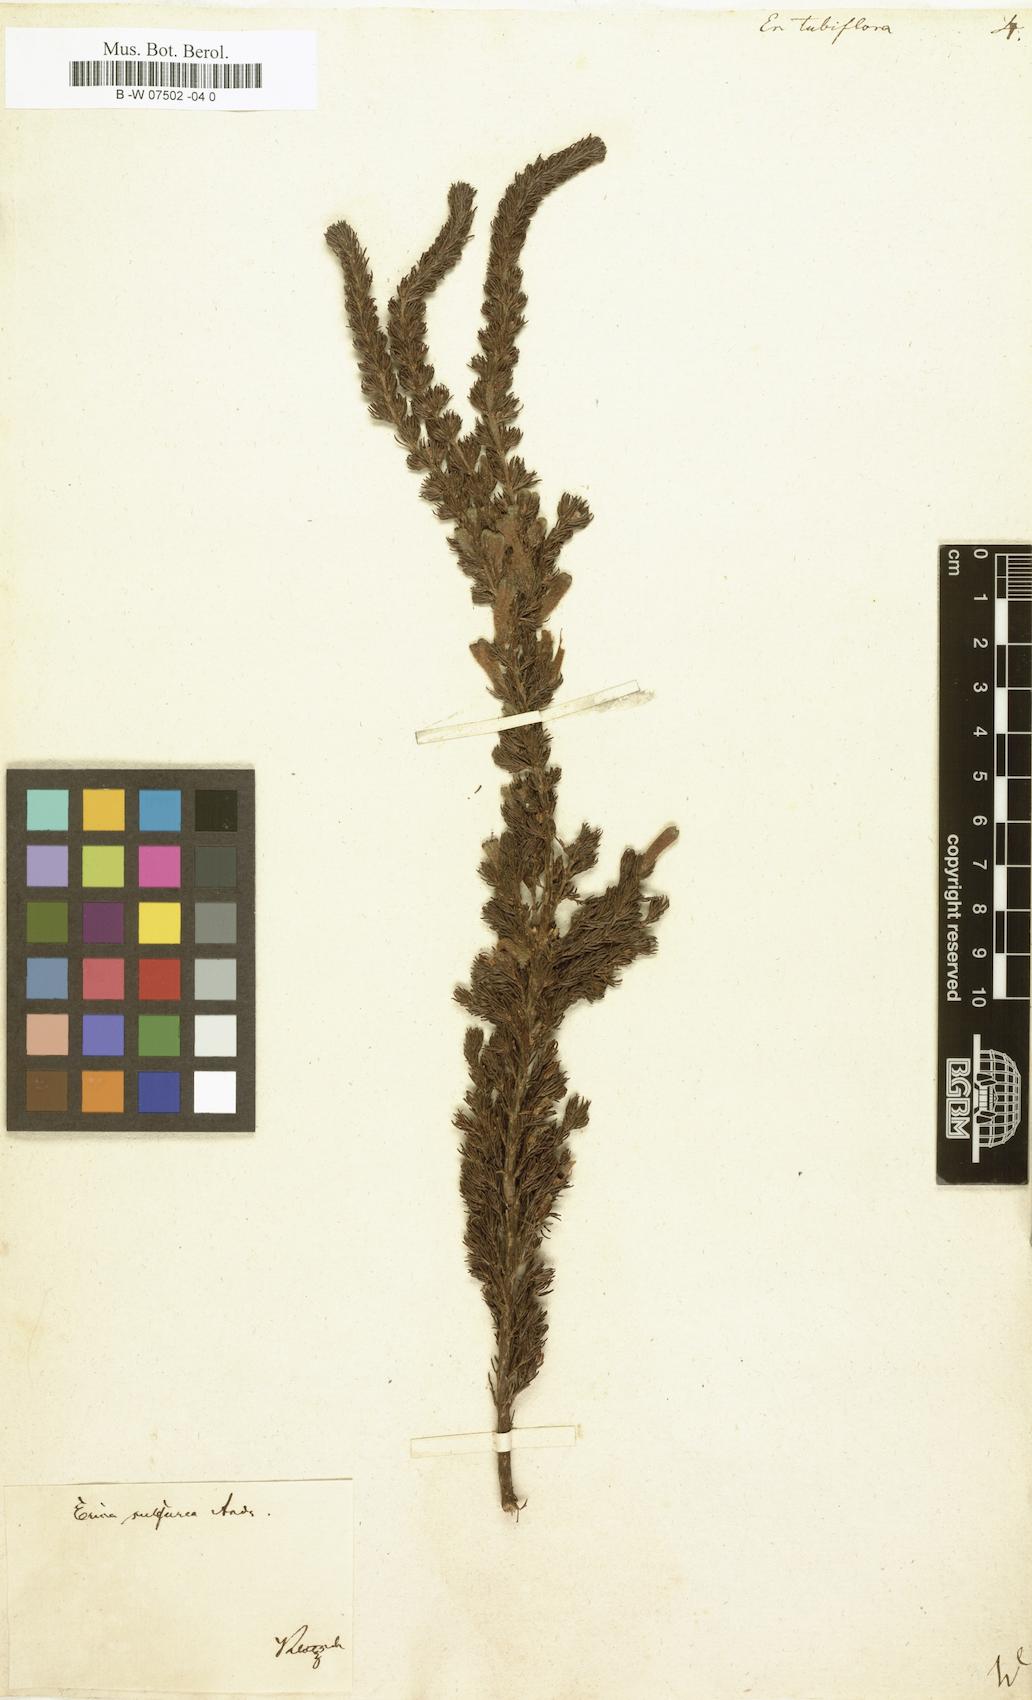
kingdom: Plantae
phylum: Tracheophyta
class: Magnoliopsida
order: Ericales
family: Ericaceae
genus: Erica
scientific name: Erica curviflora
